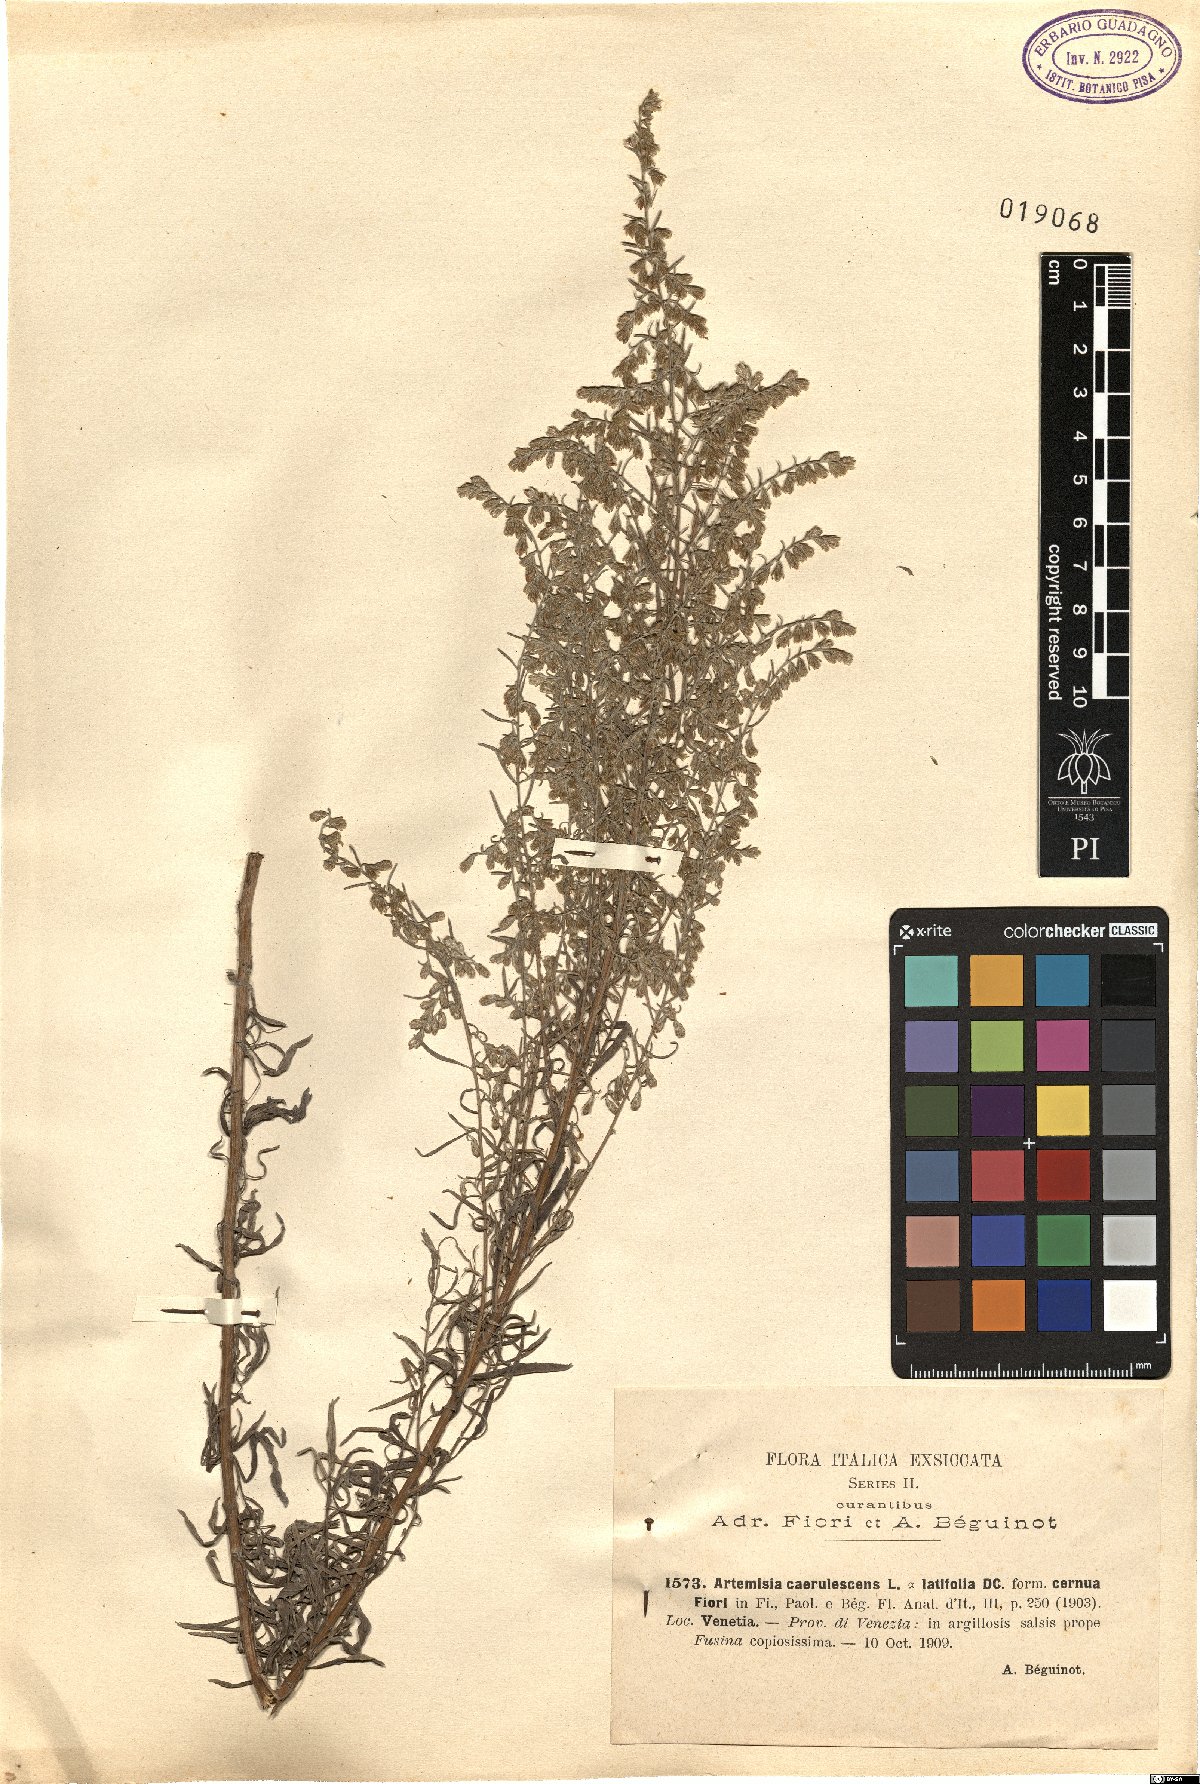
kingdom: Plantae
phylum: Tracheophyta
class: Magnoliopsida
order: Asterales
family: Asteraceae
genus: Artemisia
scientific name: Artemisia caerulescens
